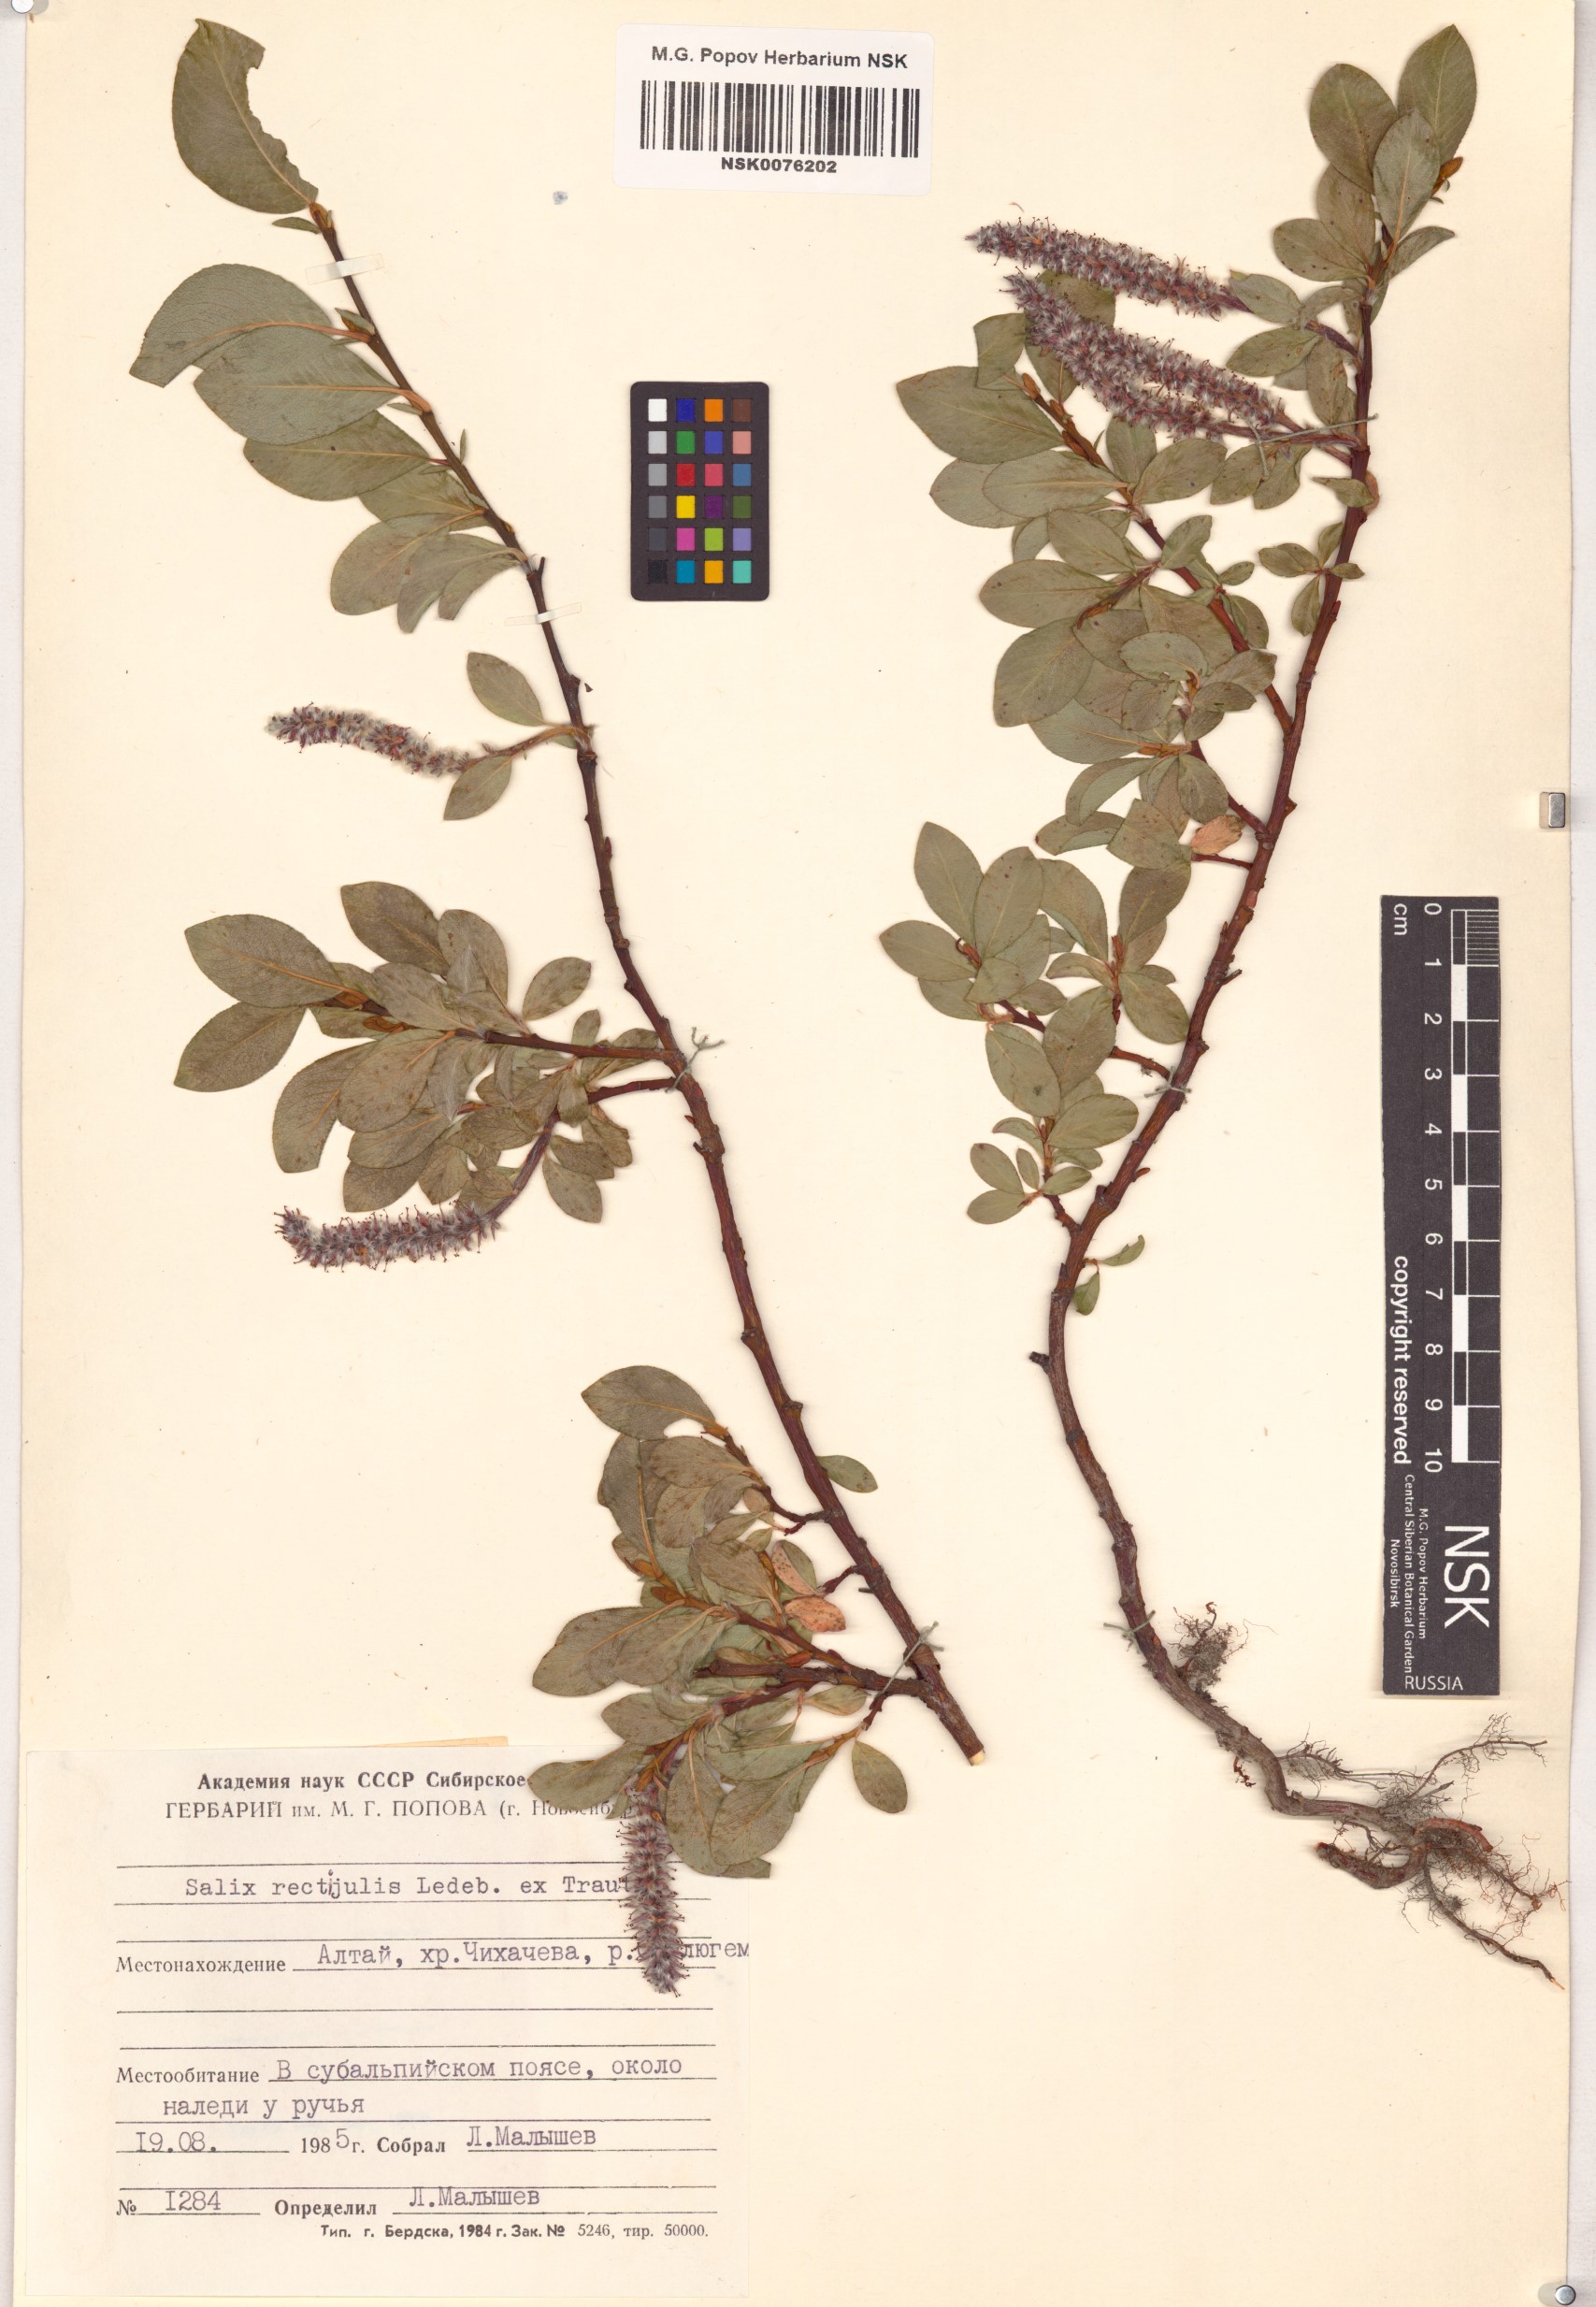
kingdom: Plantae
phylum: Tracheophyta
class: Magnoliopsida
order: Malpighiales
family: Salicaceae
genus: Salix
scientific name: Salix rectijulis
